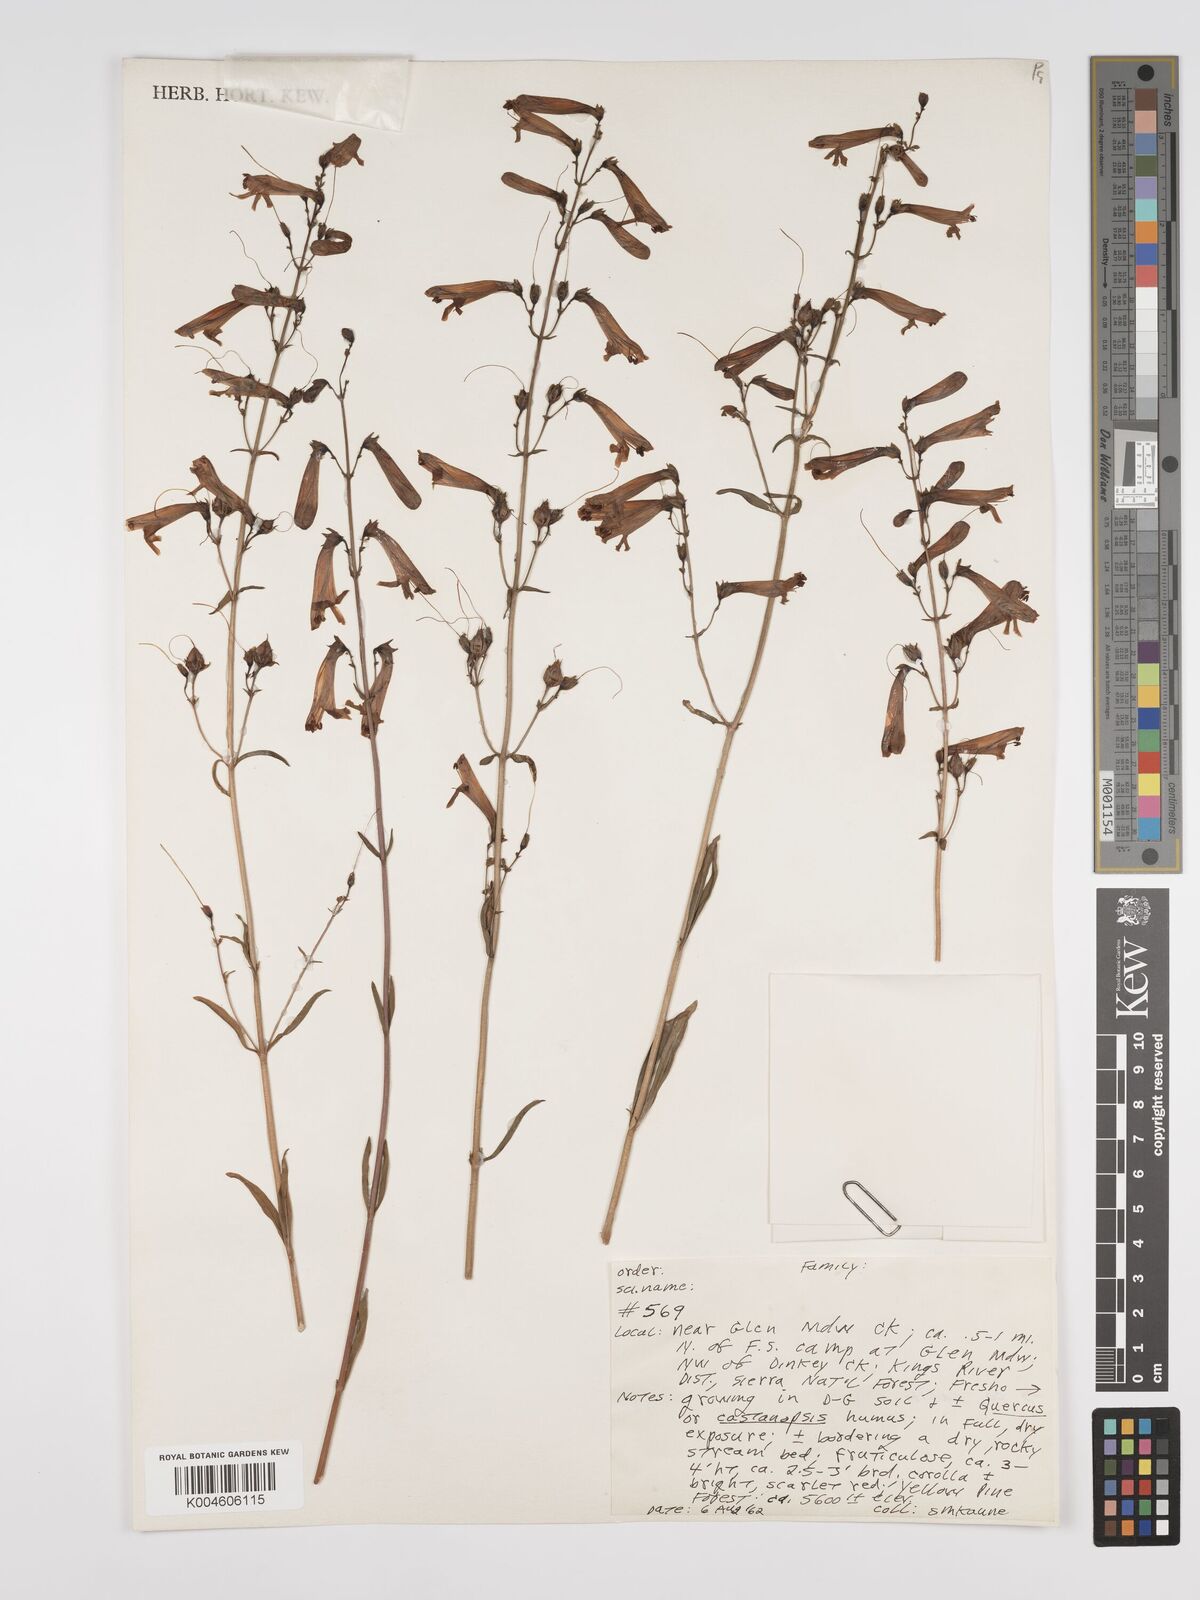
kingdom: Plantae
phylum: Tracheophyta
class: Magnoliopsida
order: Lamiales
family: Plantaginaceae
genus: Penstemon
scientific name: Penstemon
